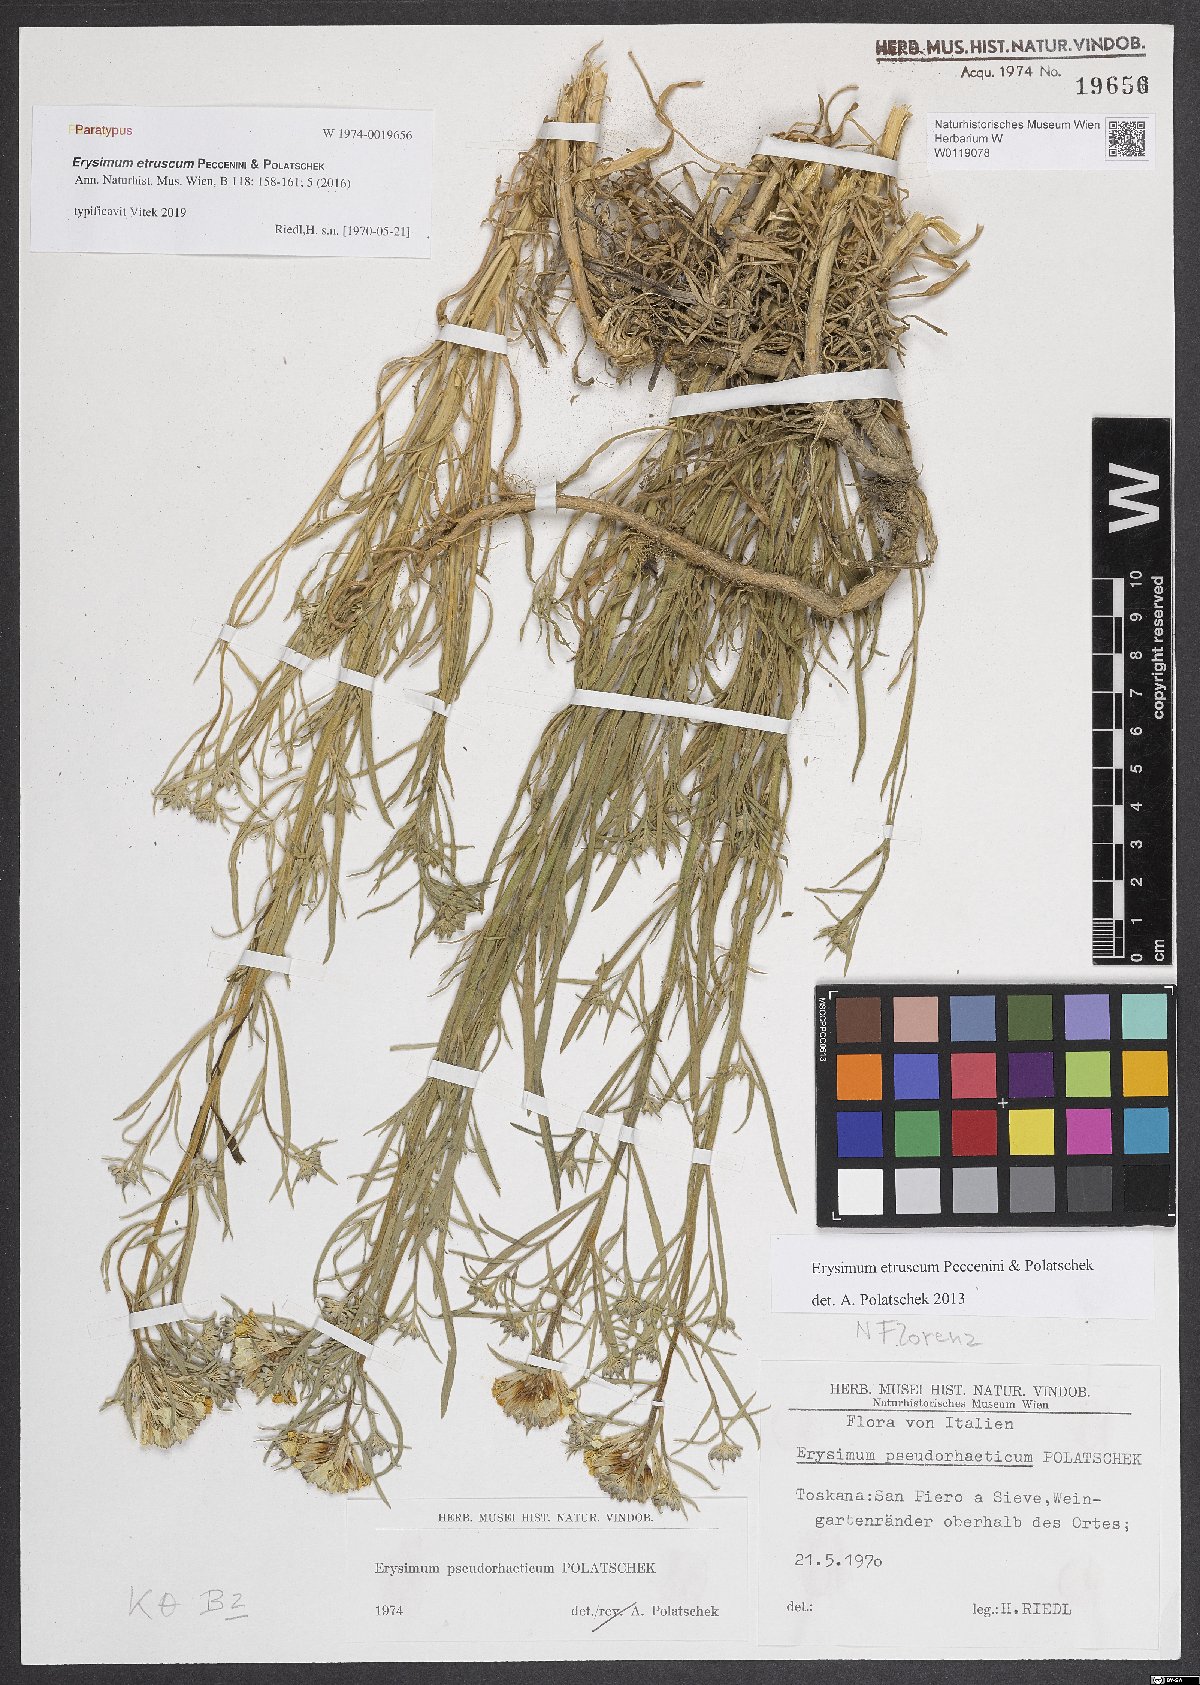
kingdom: Plantae
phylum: Tracheophyta
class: Magnoliopsida
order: Brassicales
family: Brassicaceae
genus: Erysimum
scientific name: Erysimum pseudorhaeticum
